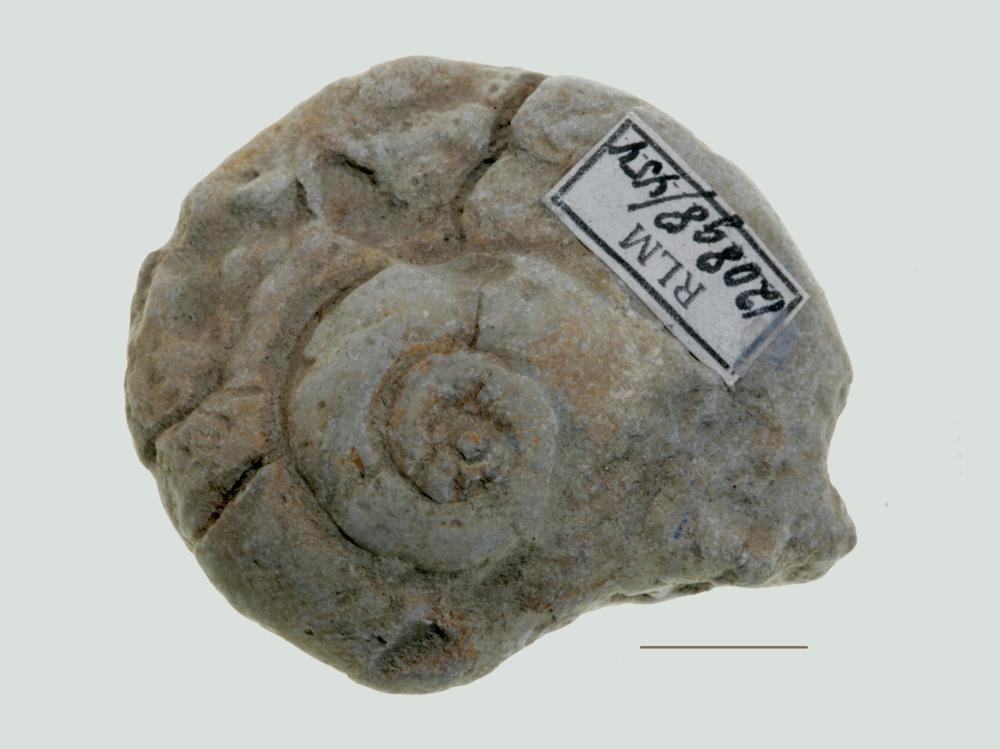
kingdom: Animalia
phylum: Mollusca
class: Gastropoda
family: Euomphalidae
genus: Euomphalus
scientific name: Euomphalus
